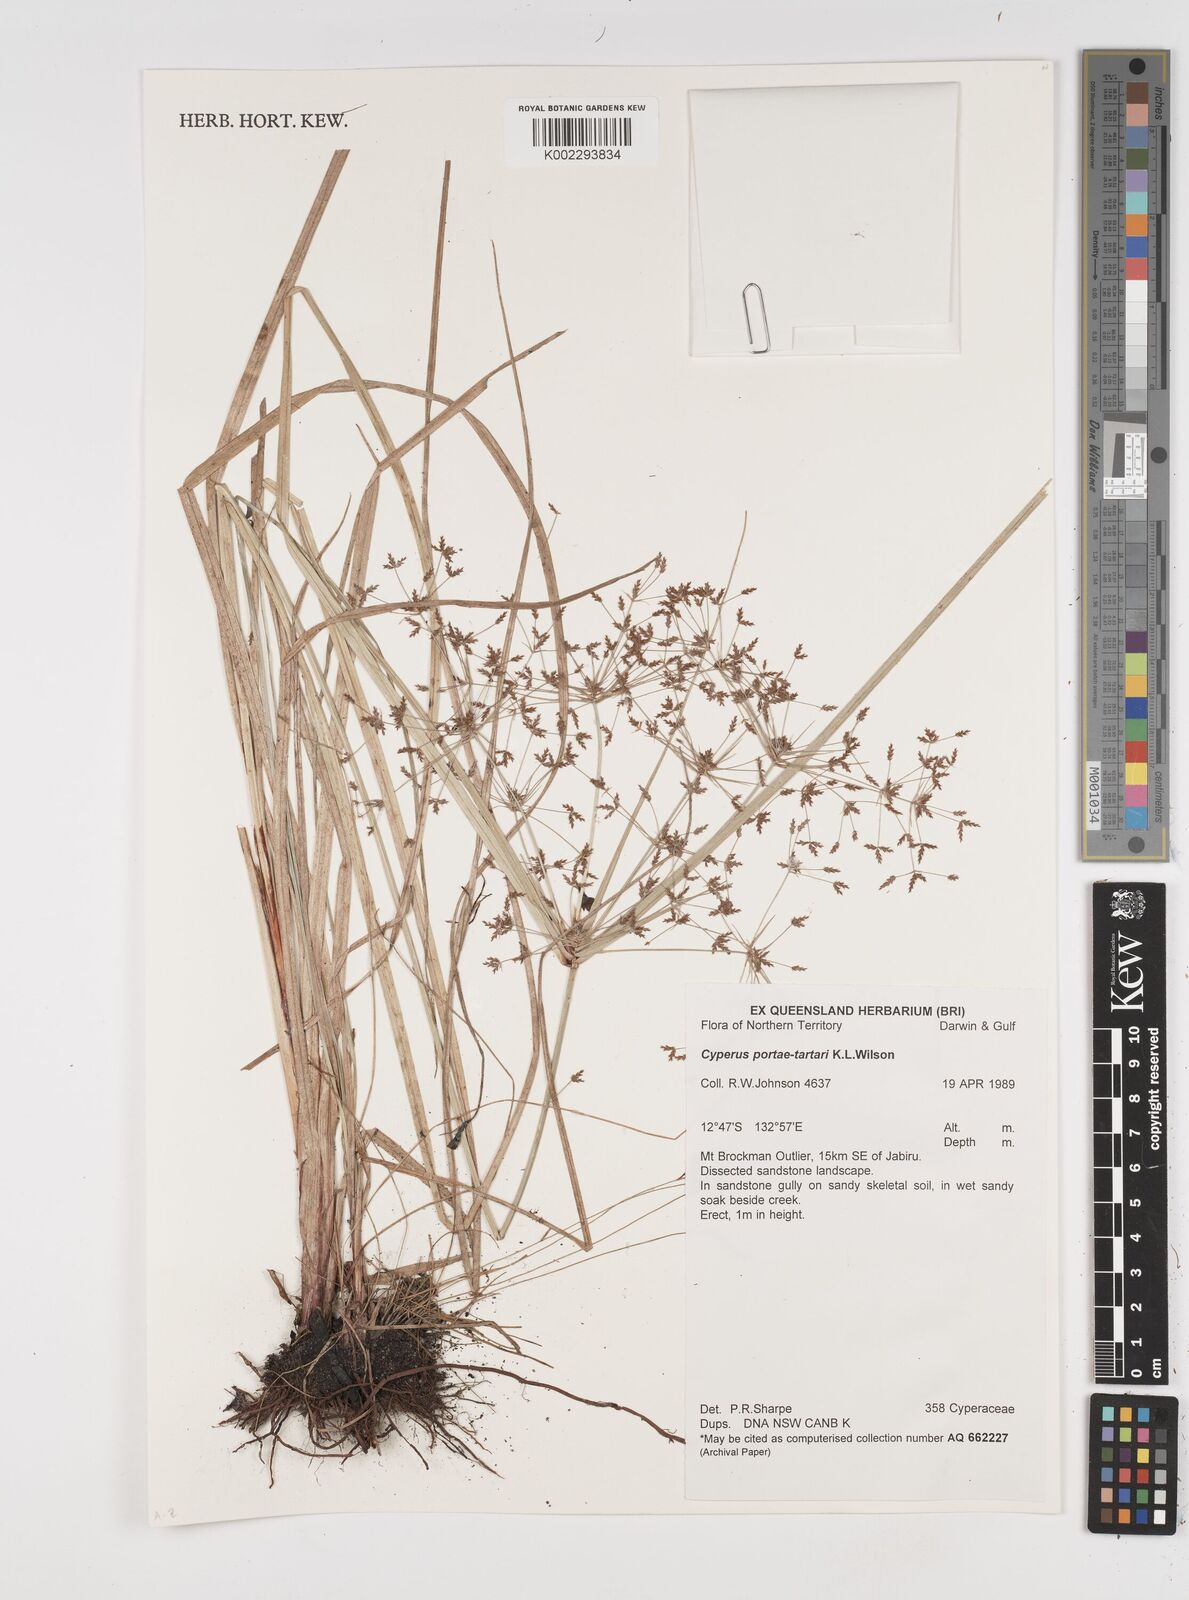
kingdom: Plantae
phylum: Tracheophyta
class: Liliopsida
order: Poales
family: Cyperaceae
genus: Cyperus
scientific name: Cyperus portae-tartari
